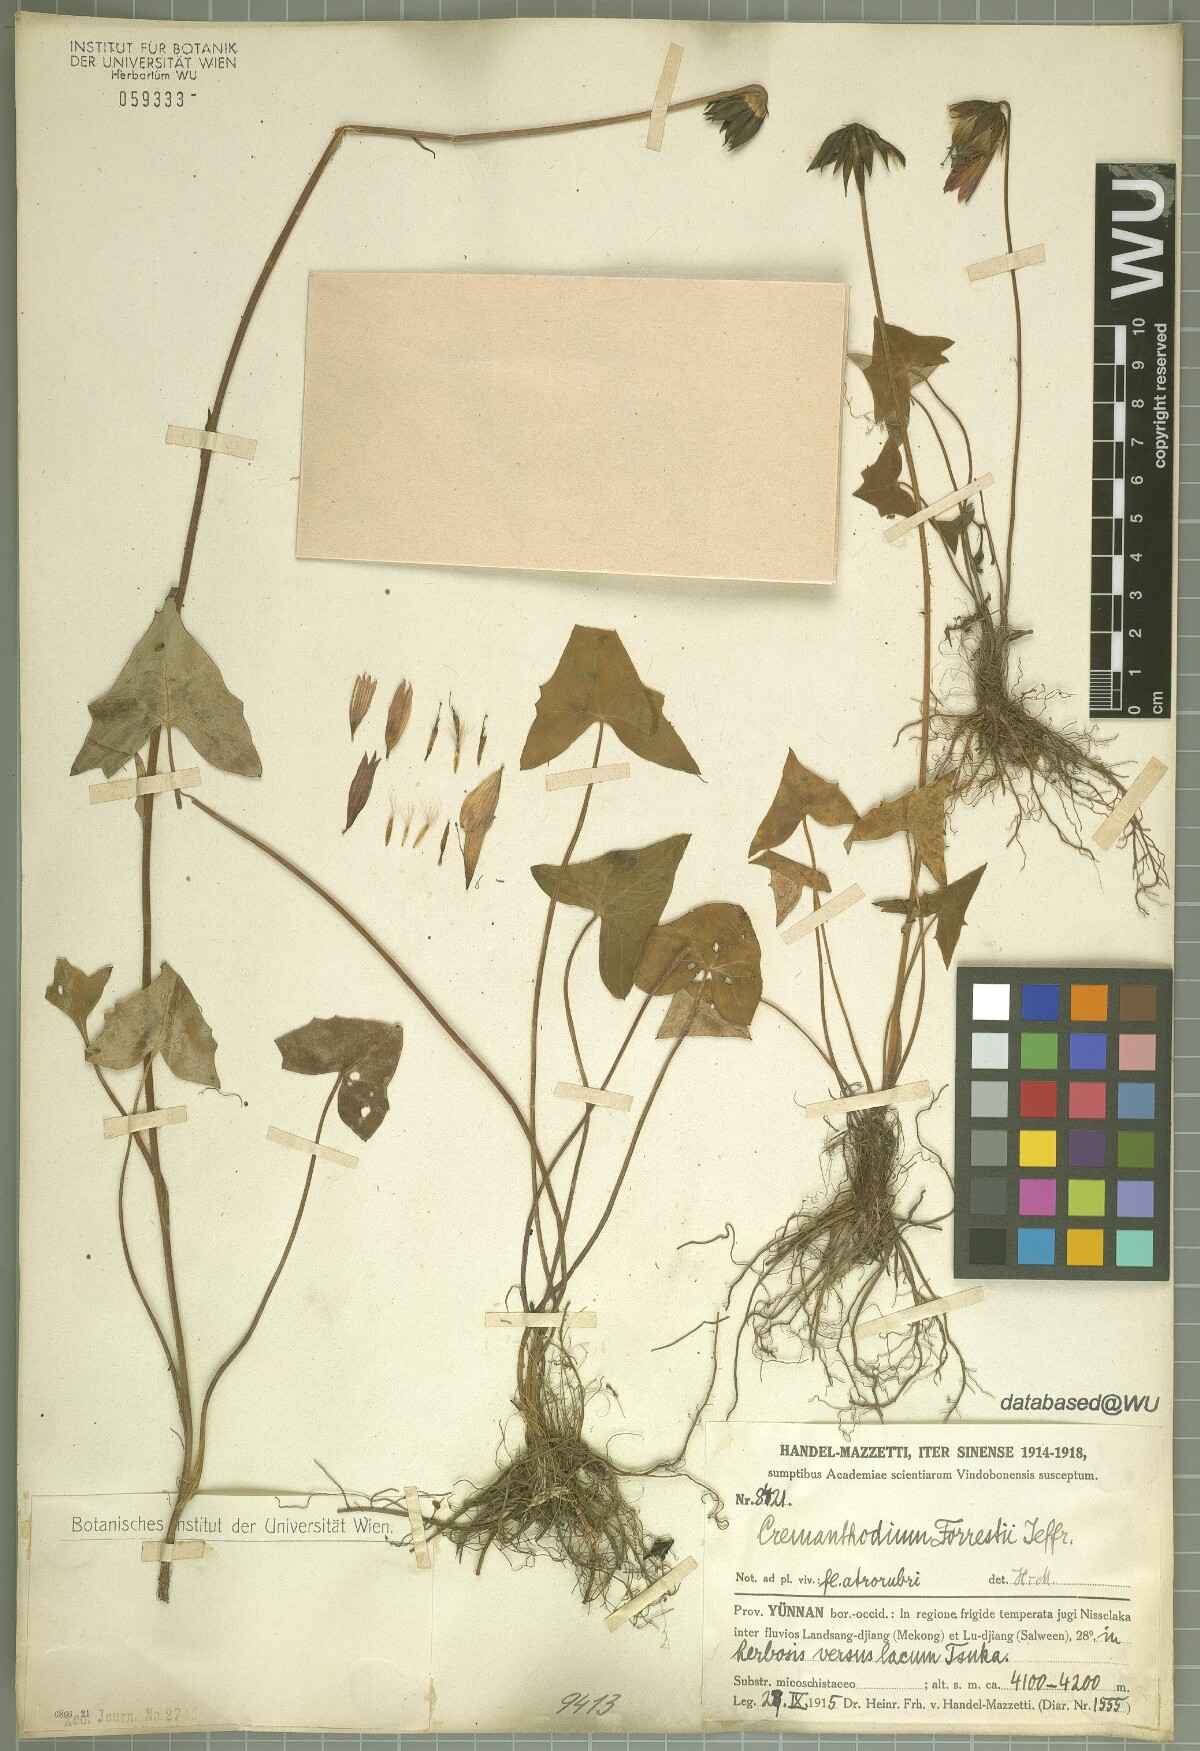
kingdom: Plantae
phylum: Tracheophyta
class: Magnoliopsida
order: Asterales
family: Asteraceae
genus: Cremanthodium
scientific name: Cremanthodium forrestii
